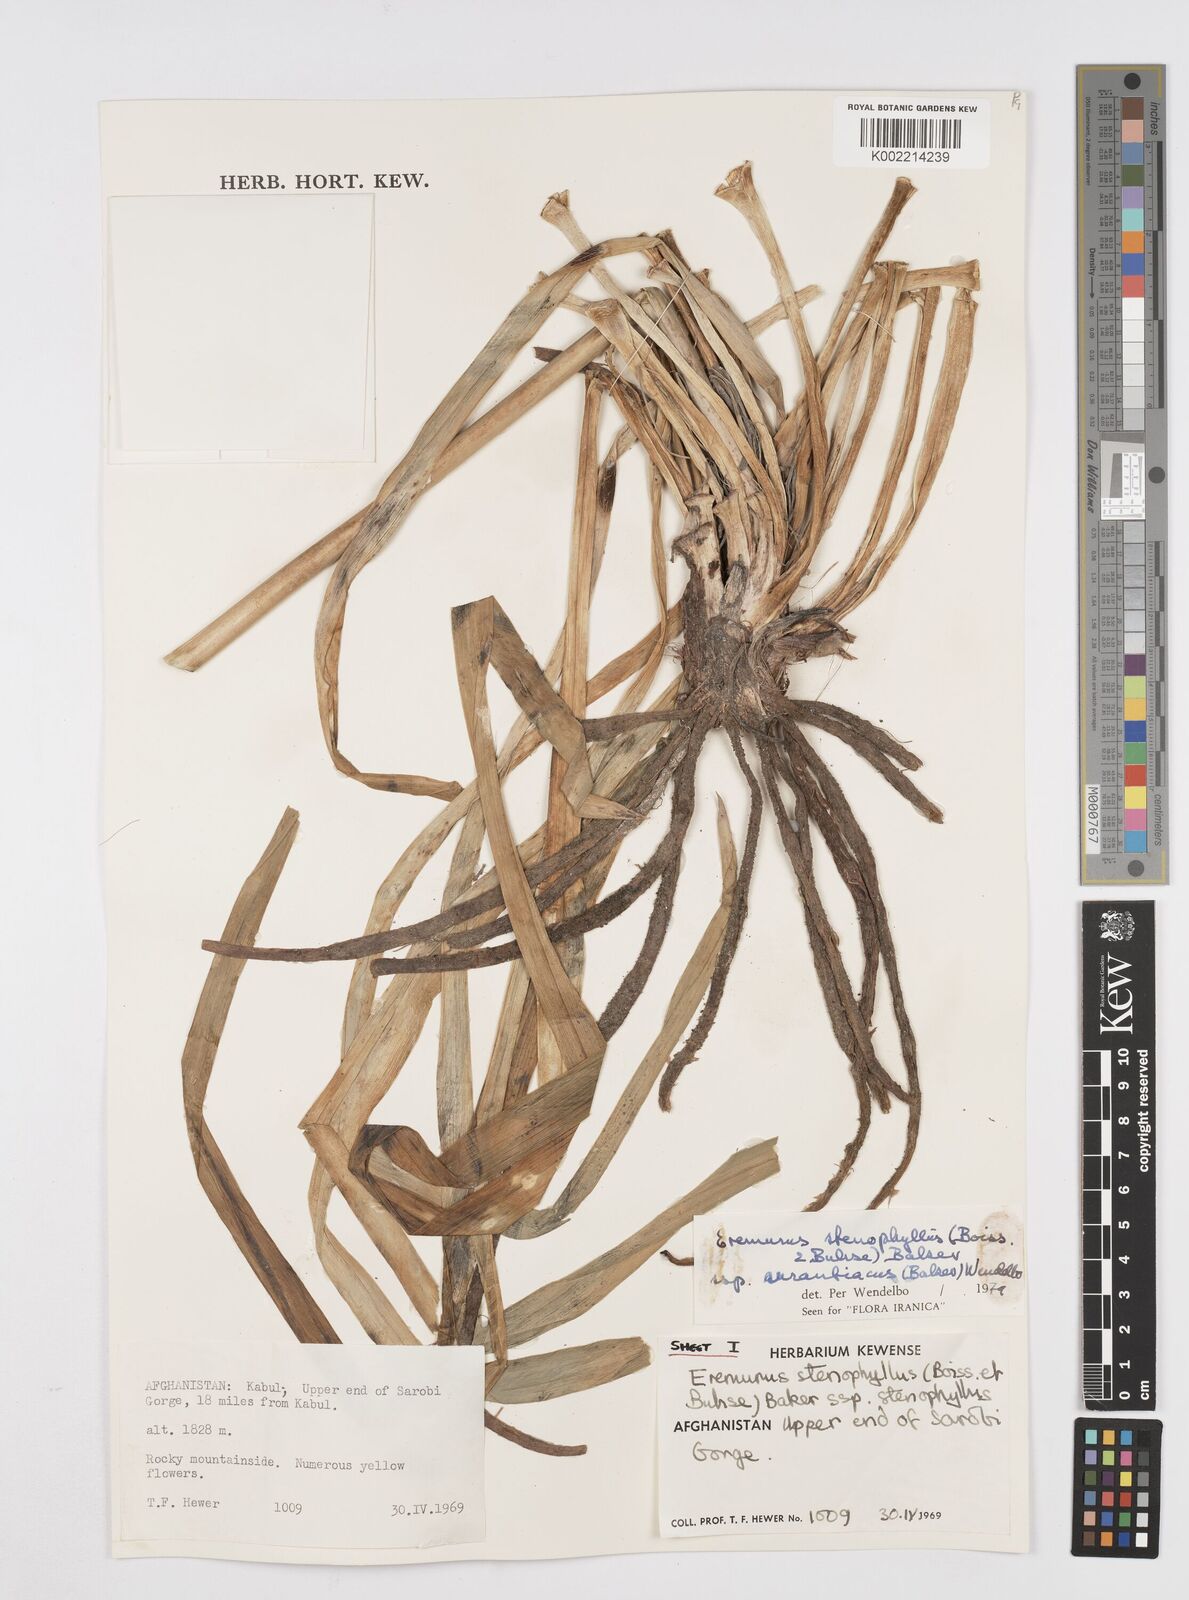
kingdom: Plantae
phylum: Tracheophyta
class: Liliopsida
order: Asparagales
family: Asphodelaceae
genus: Eremurus
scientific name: Eremurus stenophyllus
